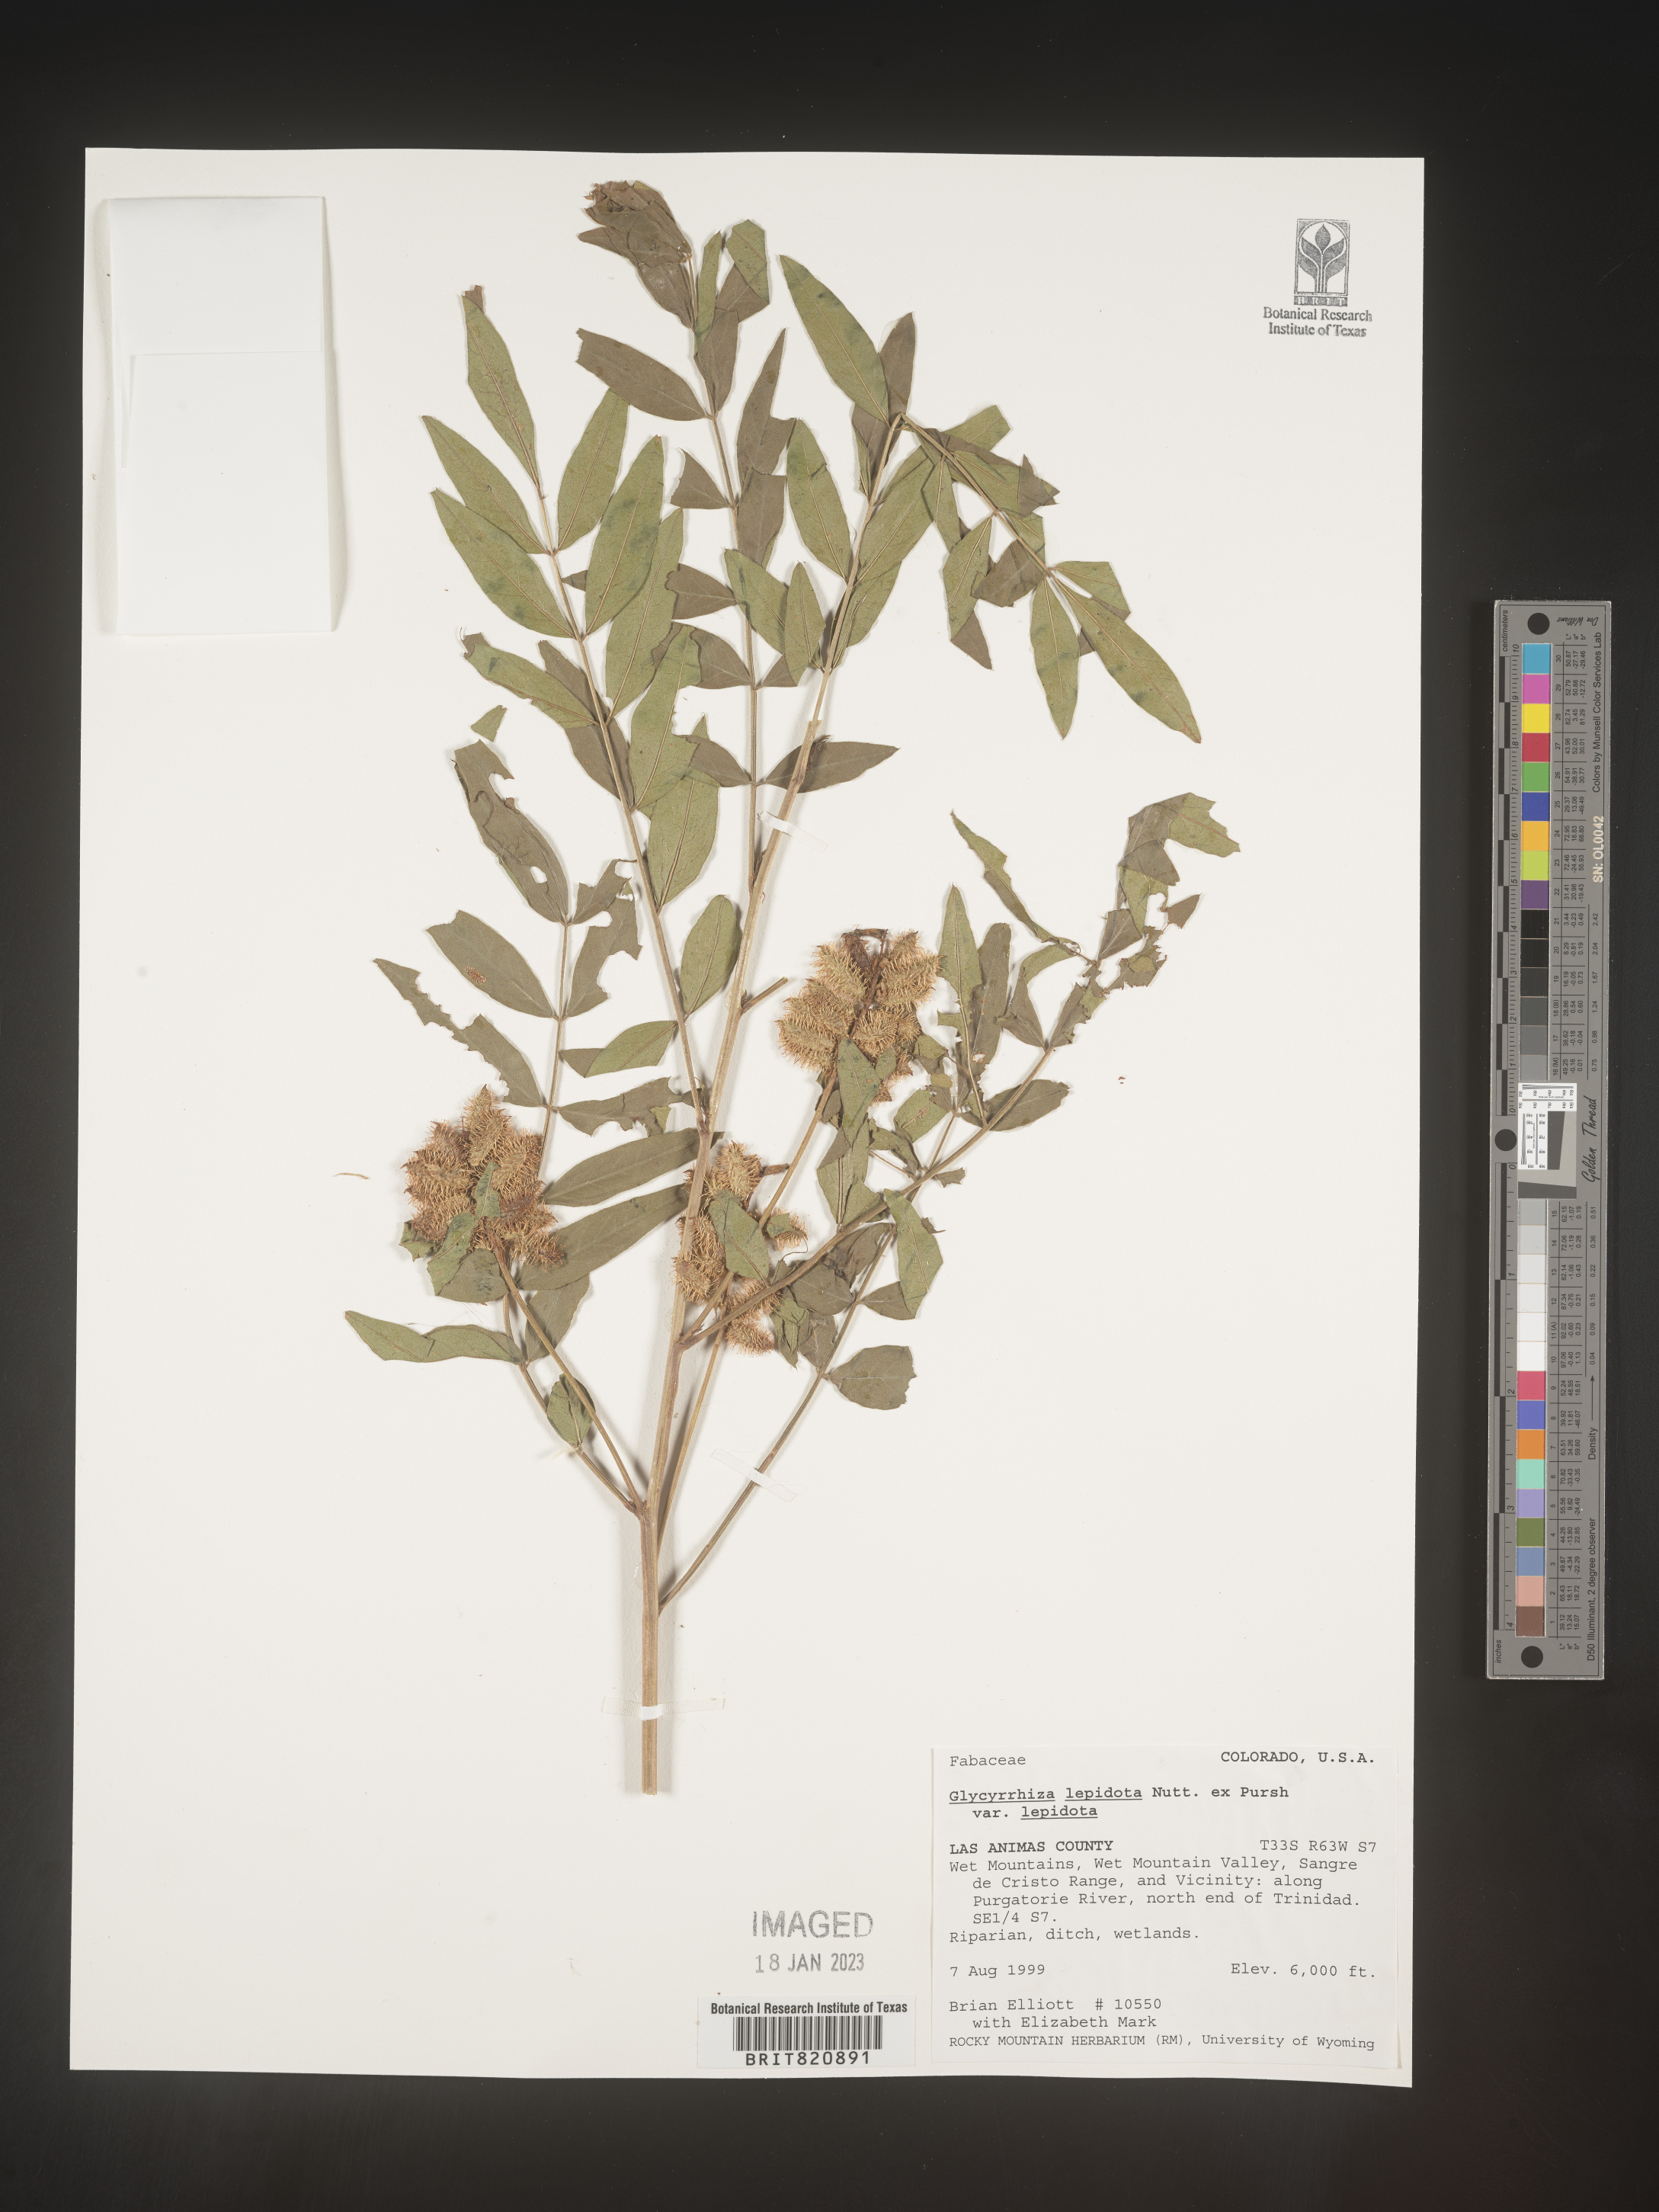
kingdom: Plantae
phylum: Tracheophyta
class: Magnoliopsida
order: Fabales
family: Fabaceae
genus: Glycyrrhiza
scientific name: Glycyrrhiza lepidota
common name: American liquorice
